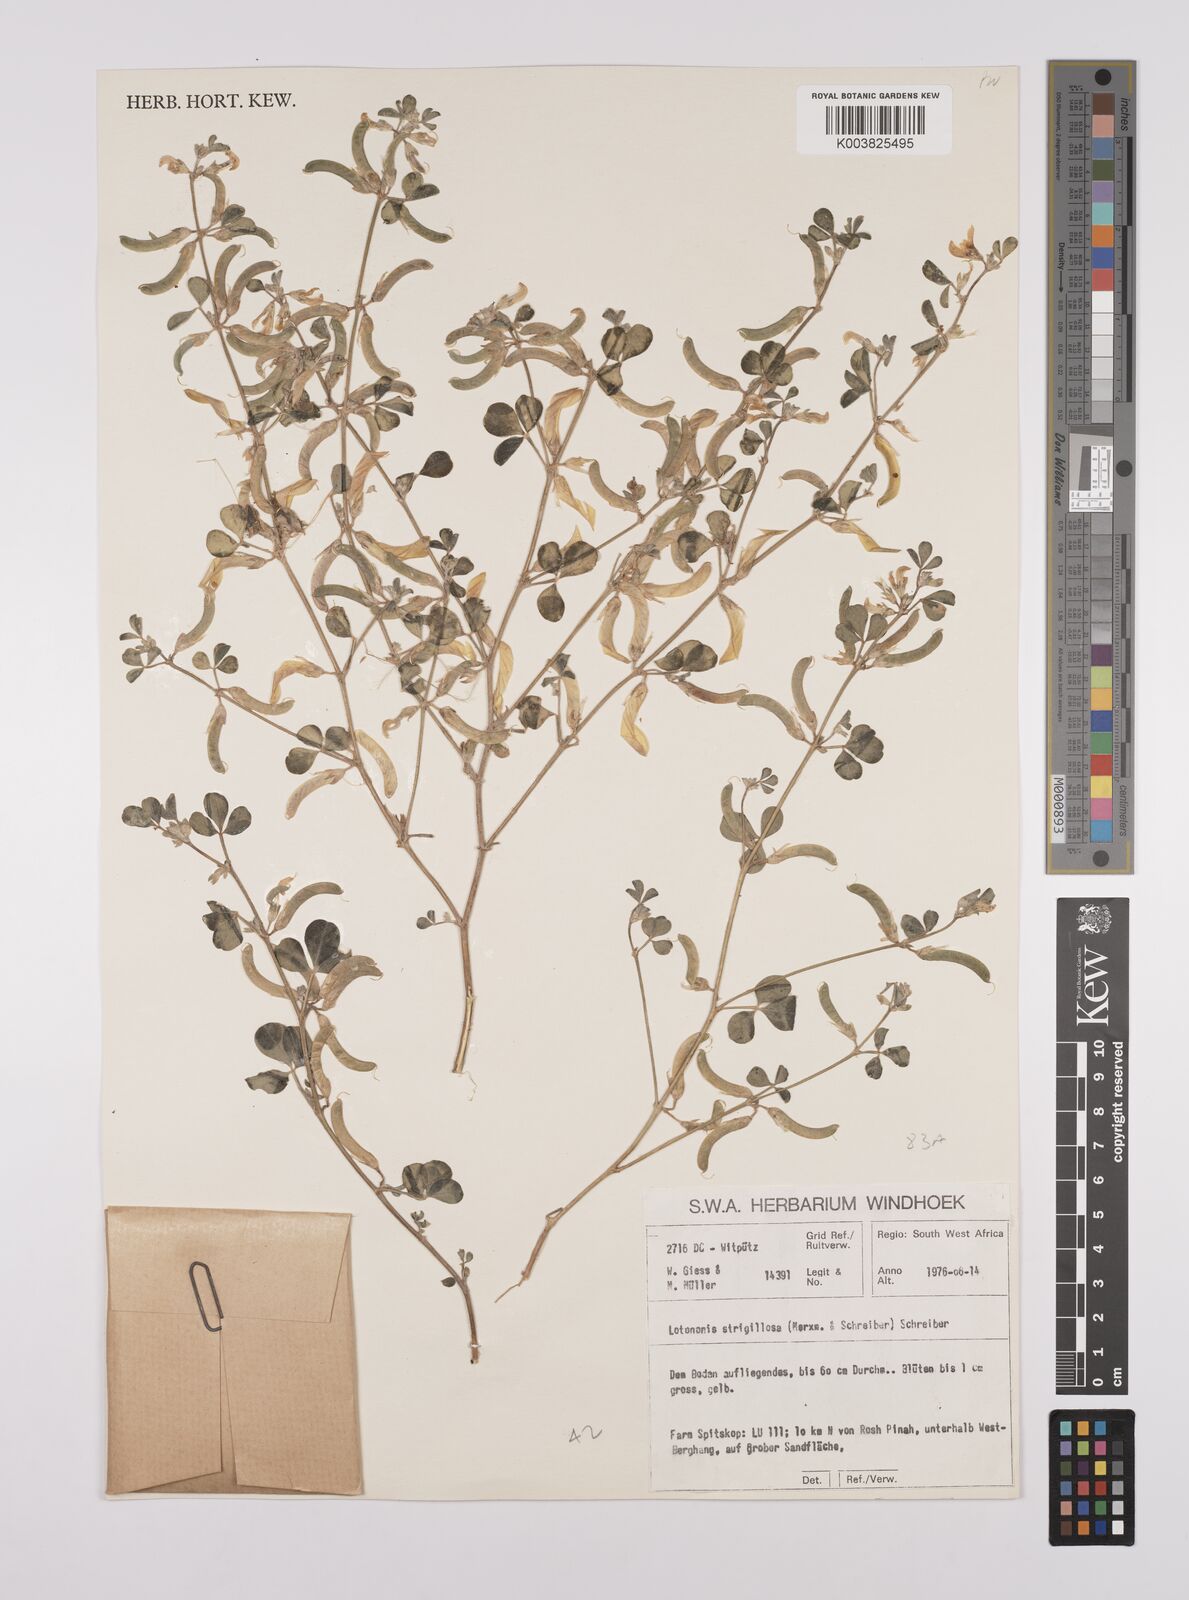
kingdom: Plantae
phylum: Tracheophyta
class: Magnoliopsida
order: Fabales
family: Fabaceae
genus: Lotononis
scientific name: Lotononis strigillosa
